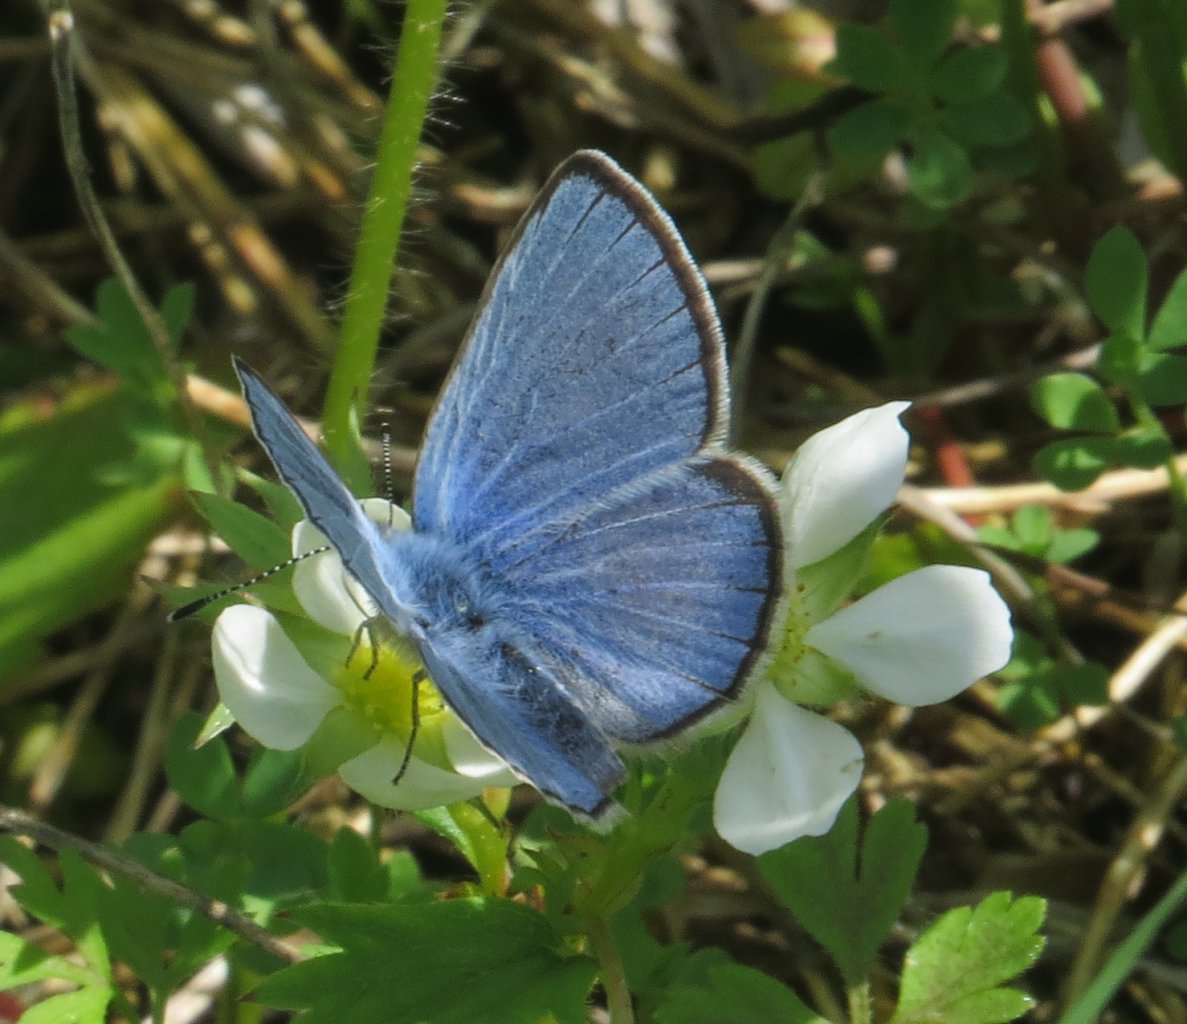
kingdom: Animalia
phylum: Arthropoda
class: Insecta
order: Lepidoptera
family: Lycaenidae
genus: Glaucopsyche
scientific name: Glaucopsyche lygdamus
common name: Silvery Blue
